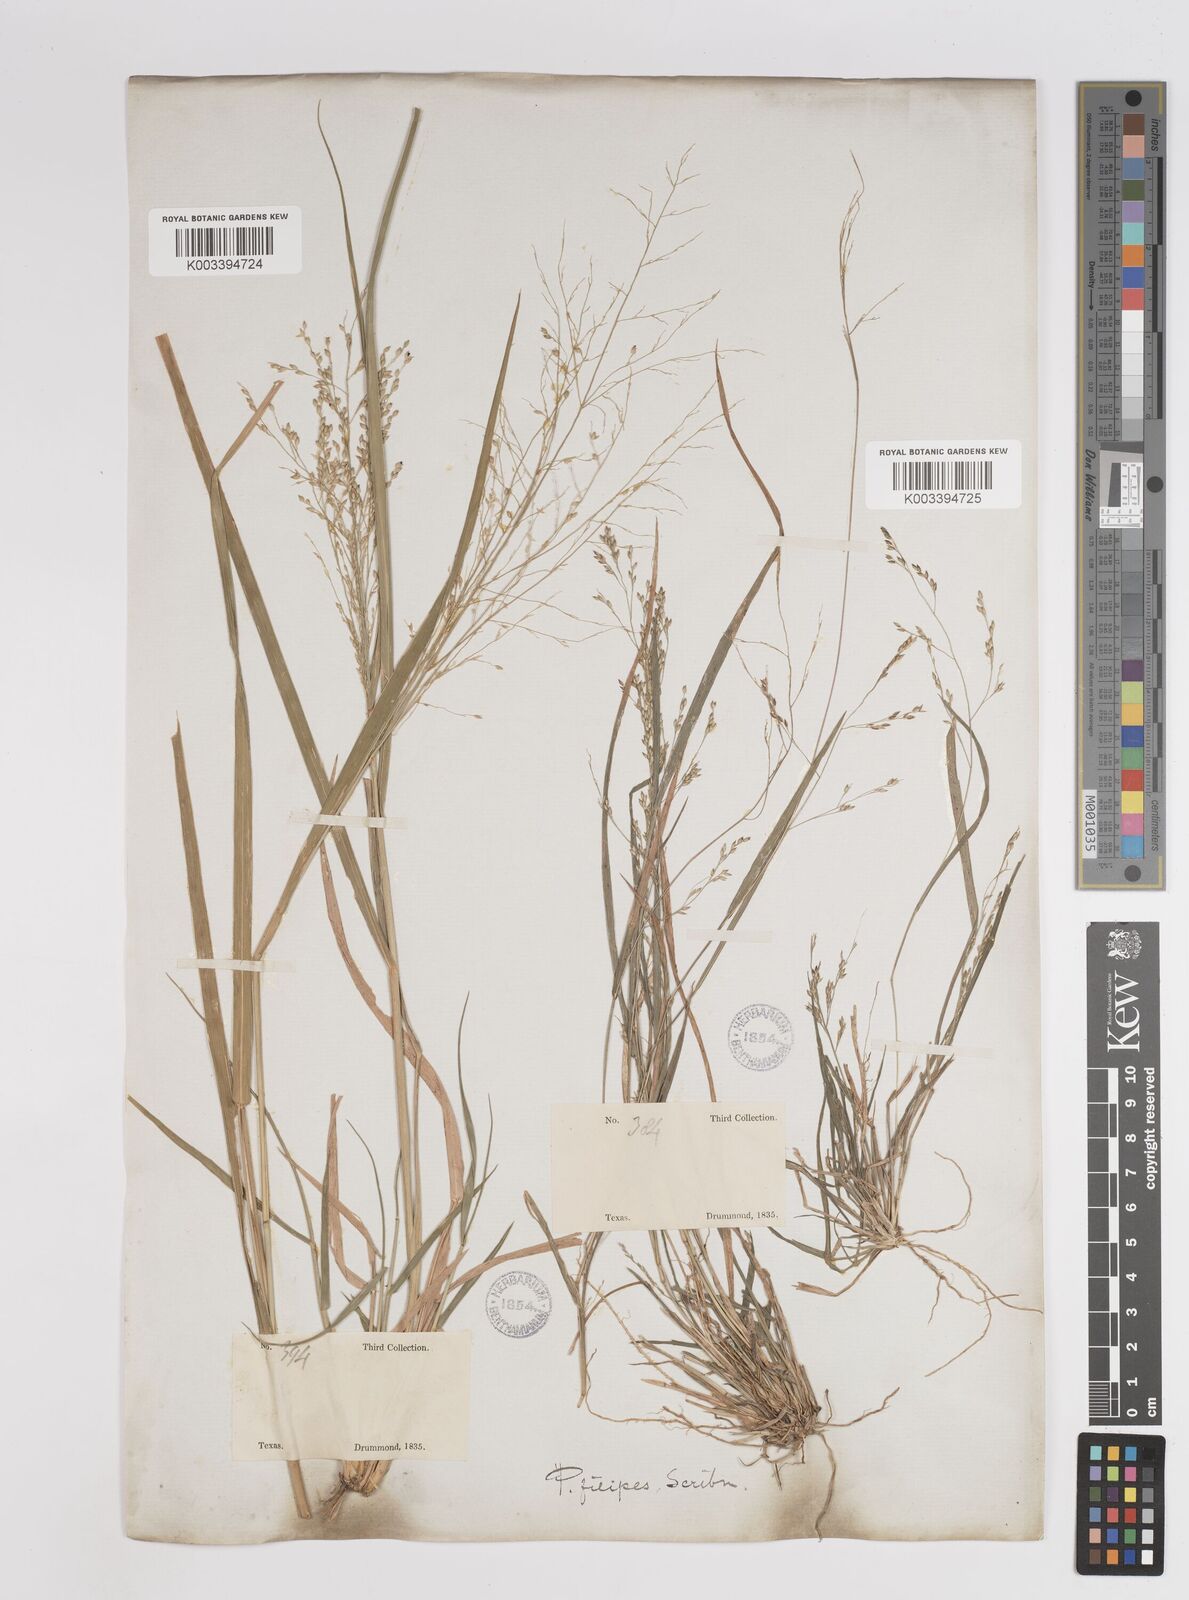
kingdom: Plantae
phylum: Tracheophyta
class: Liliopsida
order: Poales
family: Poaceae
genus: Panicum
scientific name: Panicum hallii
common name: Hall's witchgrass
